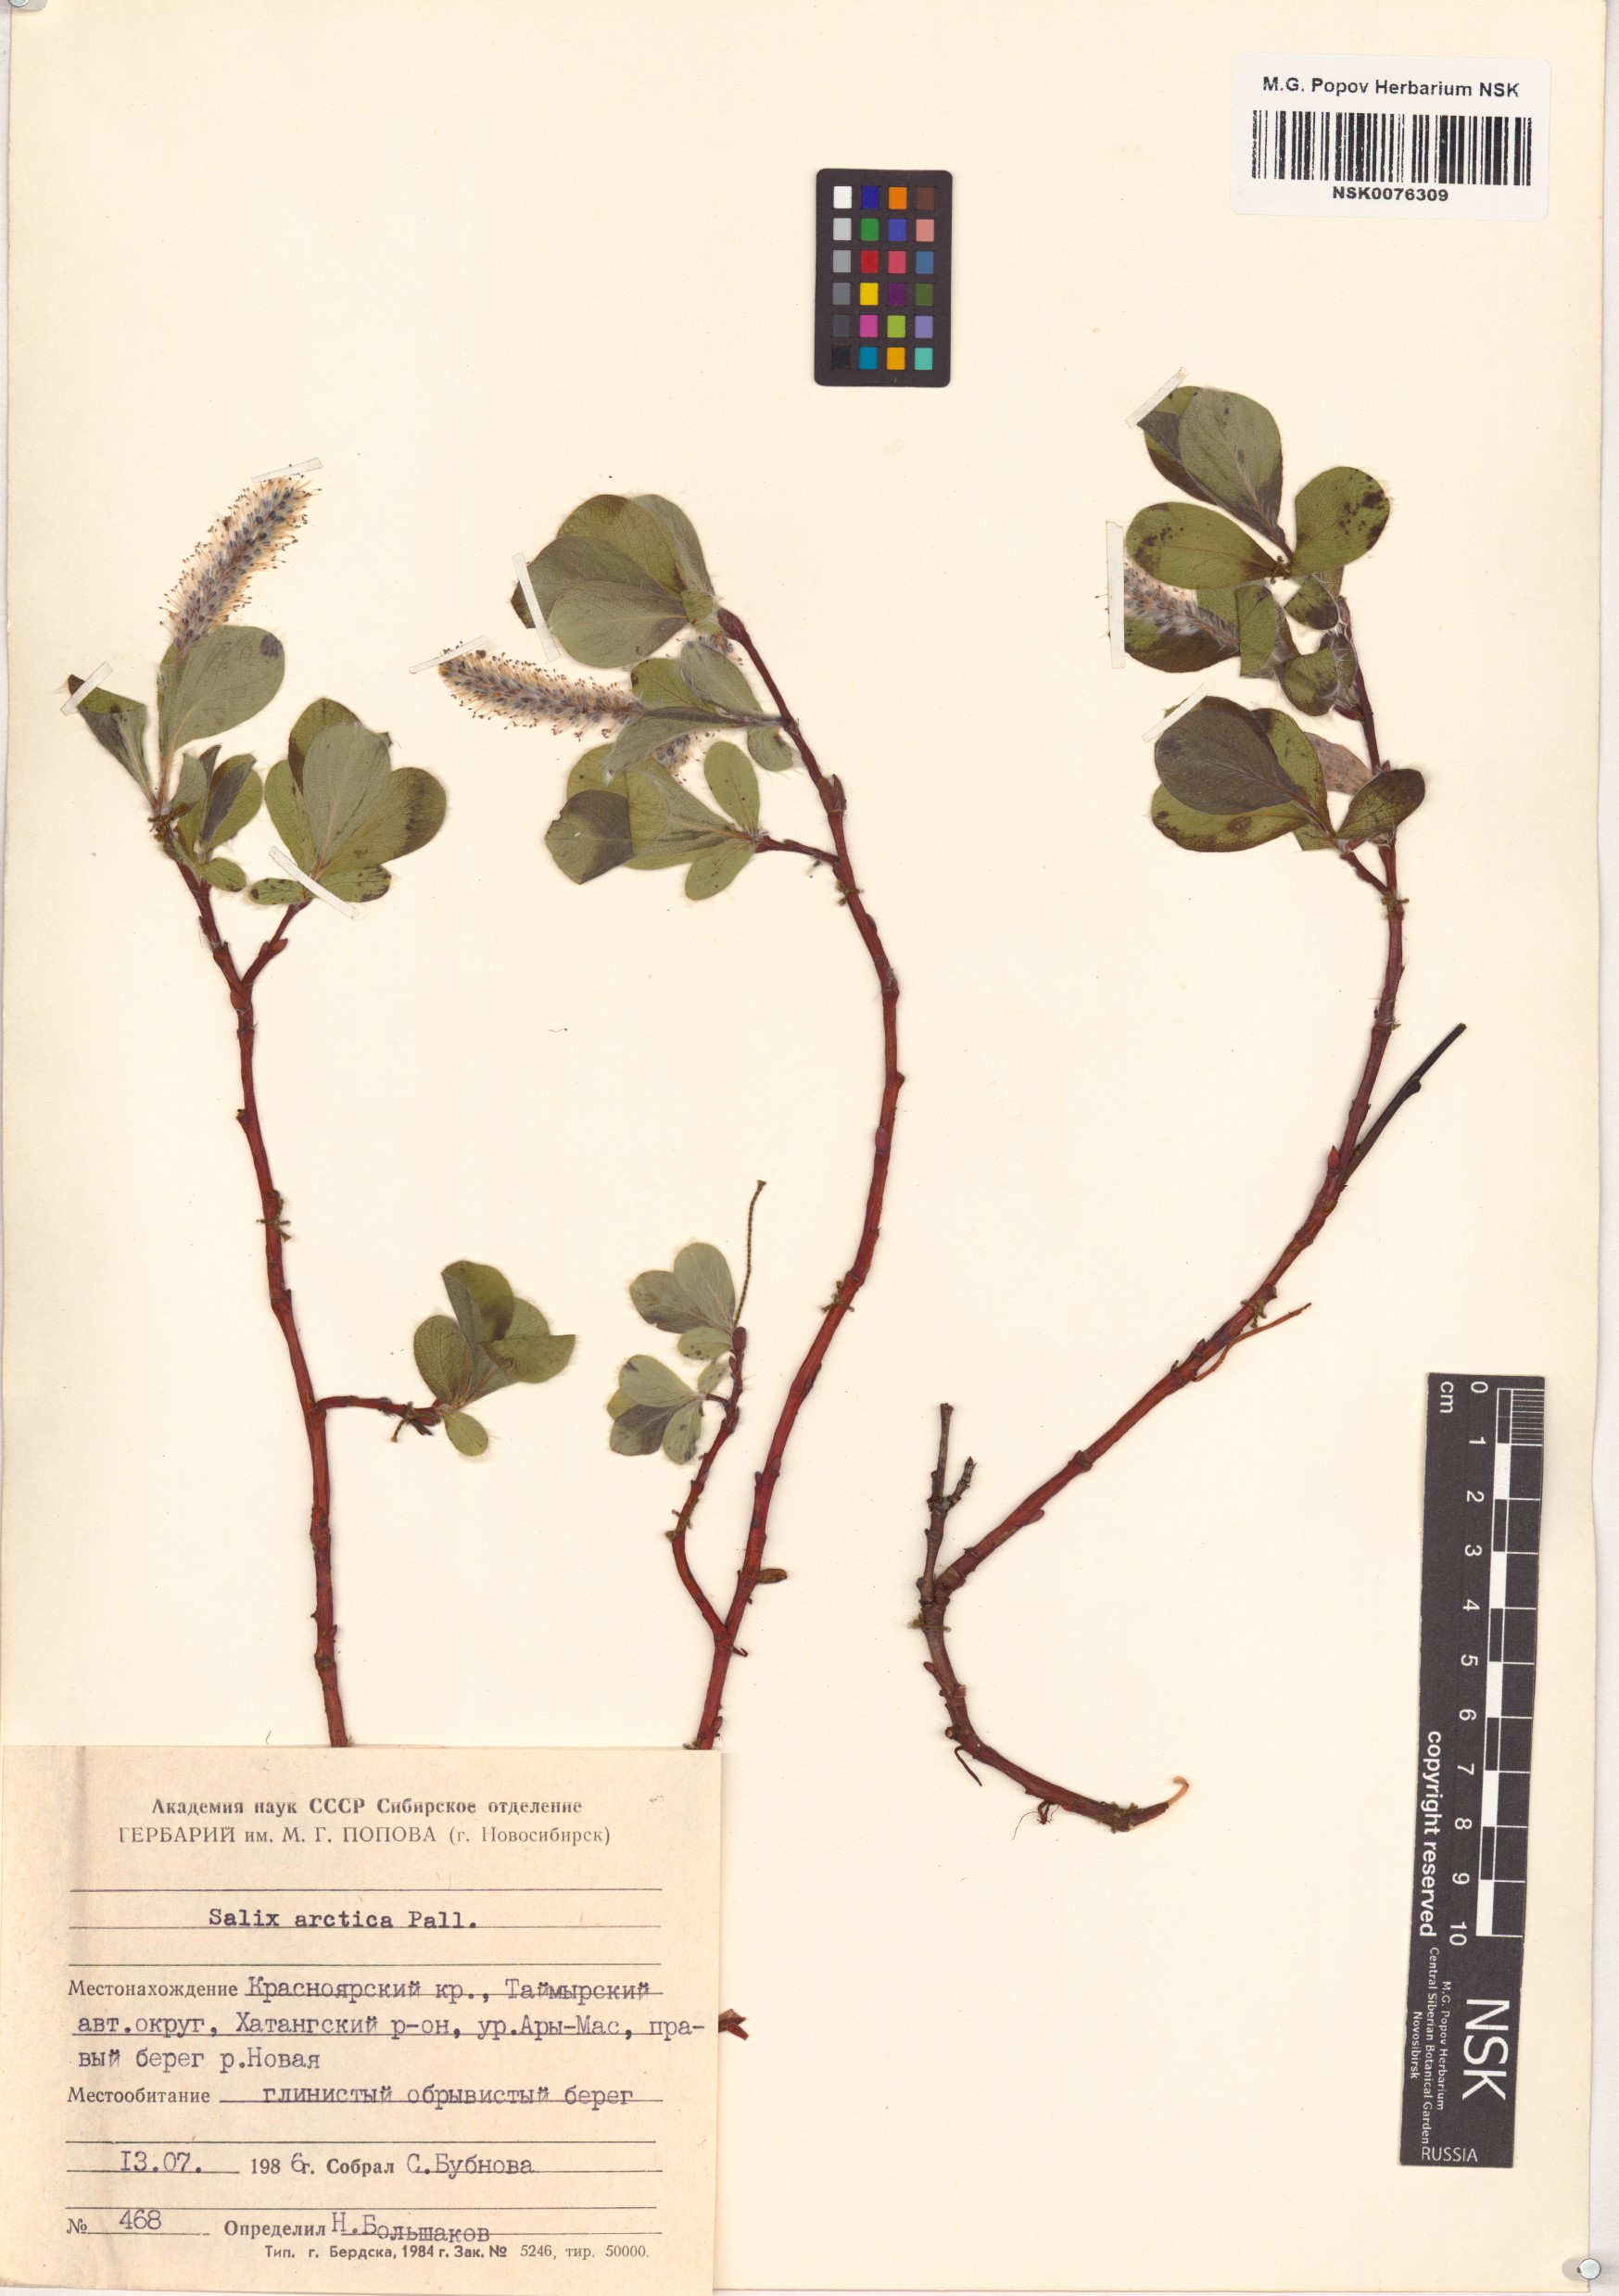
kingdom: Plantae
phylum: Tracheophyta
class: Magnoliopsida
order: Malpighiales
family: Salicaceae
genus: Salix
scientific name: Salix arctica
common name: Arctic willow
